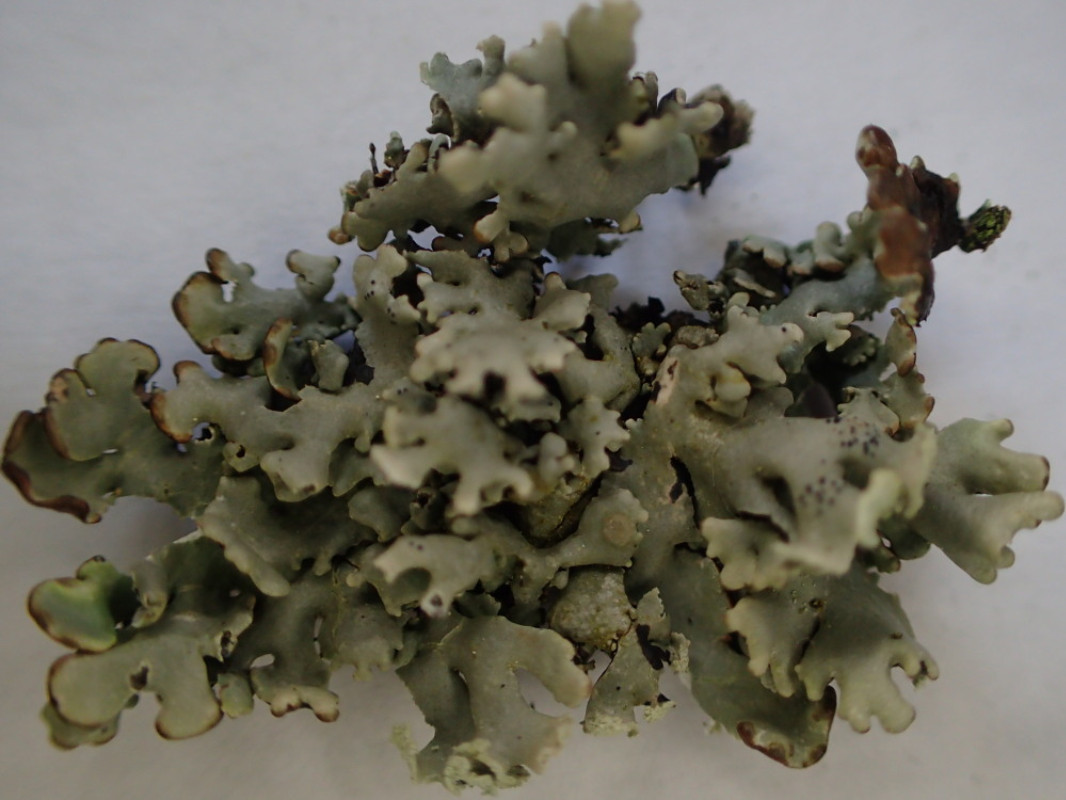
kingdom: Fungi
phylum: Ascomycota
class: Lecanoromycetes
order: Lecanorales
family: Parmeliaceae
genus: Hypogymnia
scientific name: Hypogymnia physodes
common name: almindelig kvistlav
